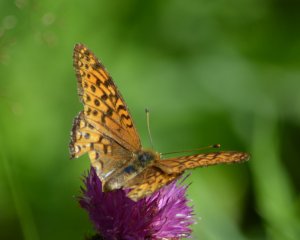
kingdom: Animalia
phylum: Arthropoda
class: Insecta
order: Lepidoptera
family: Nymphalidae
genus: Speyeria
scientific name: Speyeria atlantis
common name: Atlantis Fritillary
